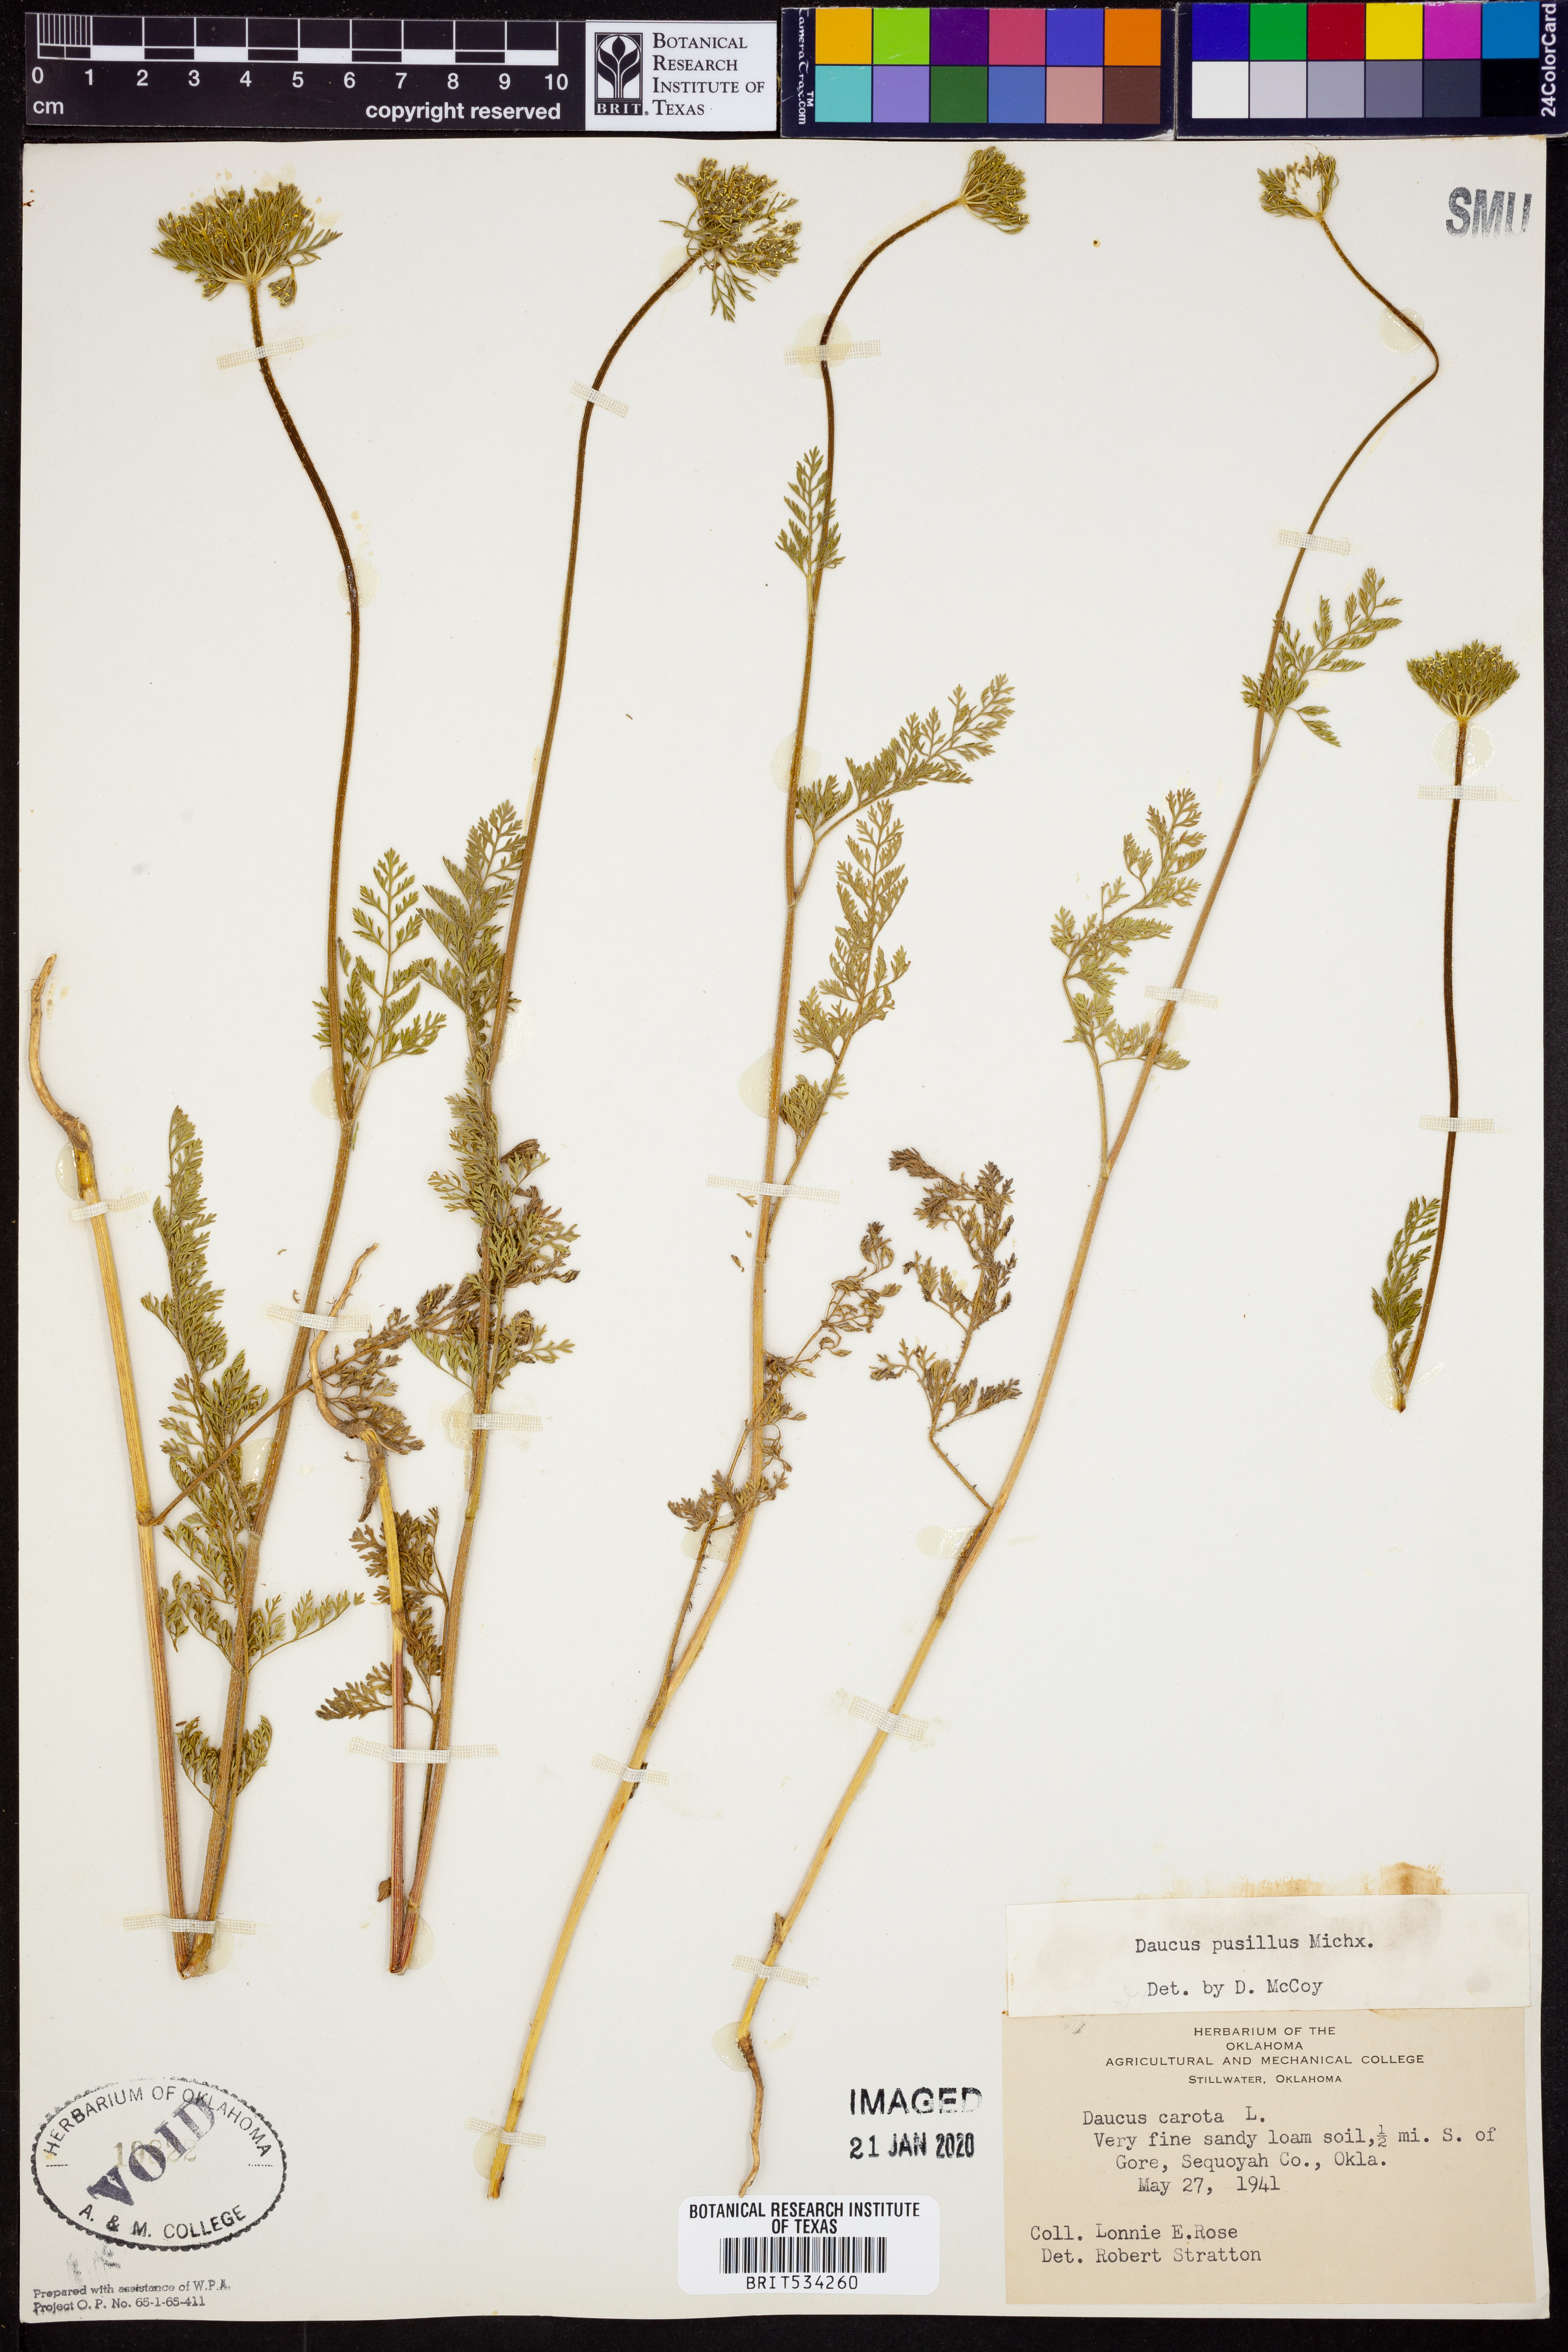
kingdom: Plantae
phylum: Tracheophyta
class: Magnoliopsida
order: Apiales
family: Apiaceae
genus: Daucus
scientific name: Daucus pusillus
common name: Southwest wild carrot
